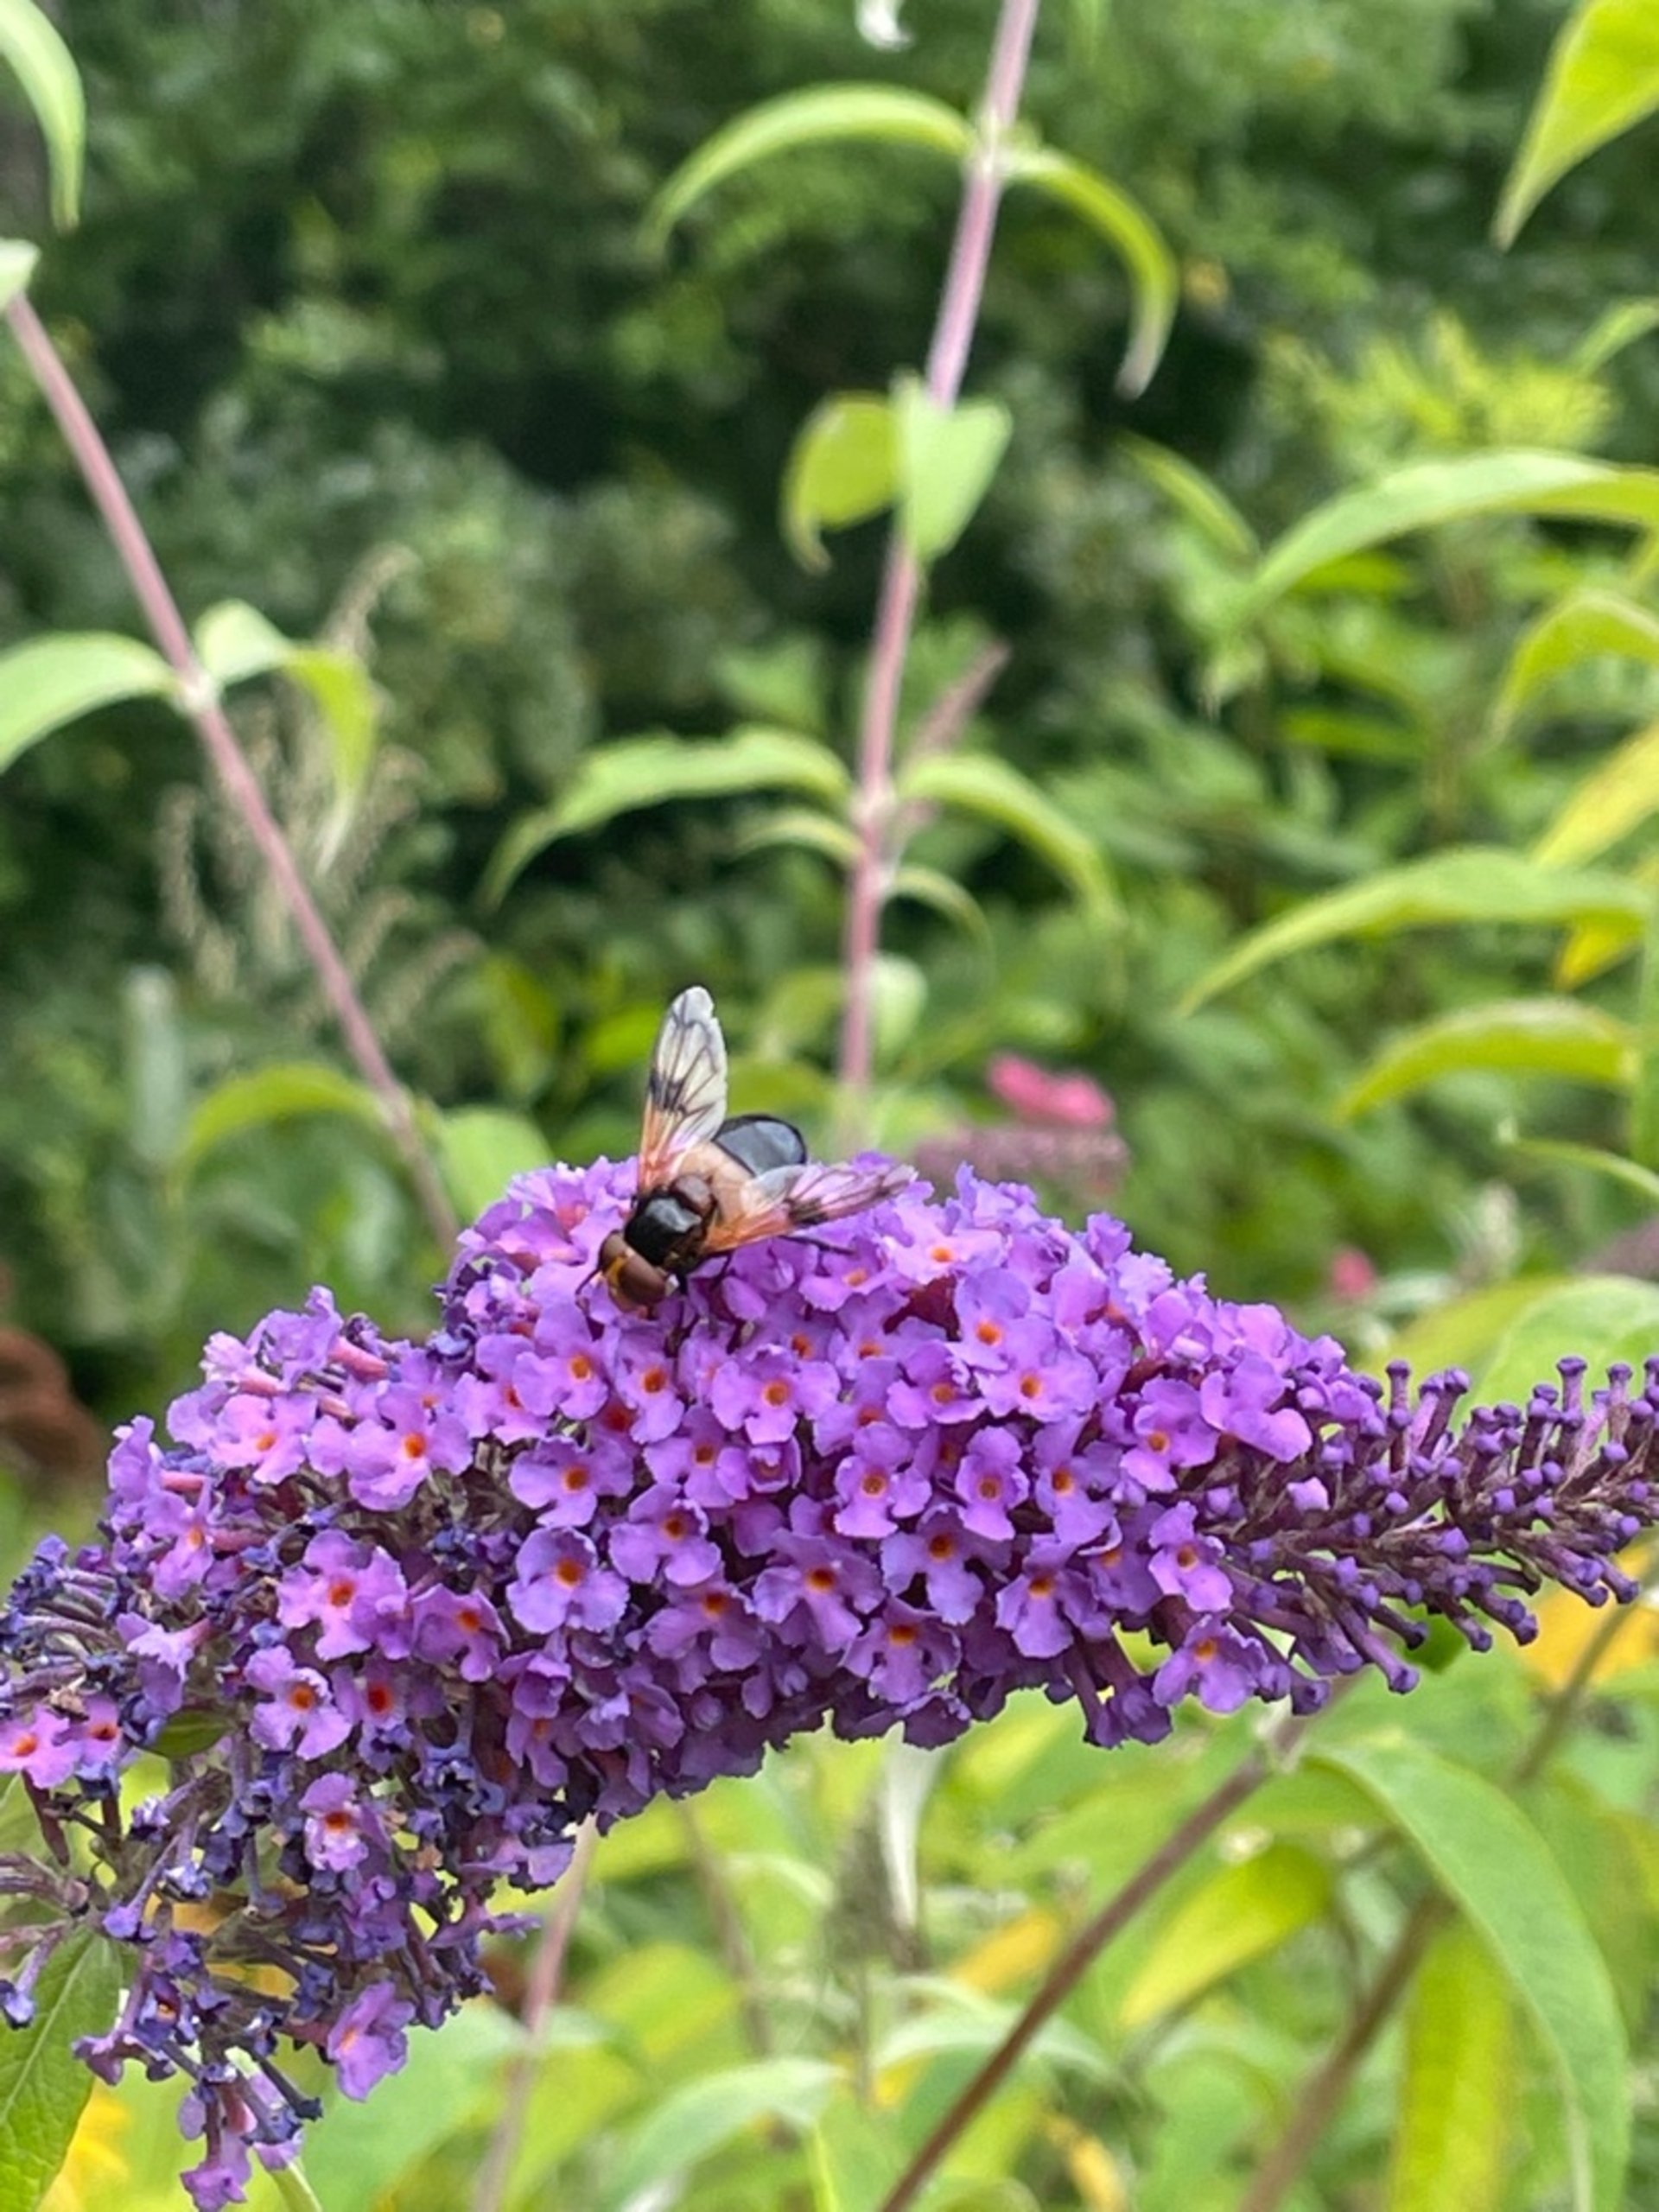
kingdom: Animalia
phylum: Arthropoda
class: Insecta
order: Diptera
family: Syrphidae
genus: Volucella
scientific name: Volucella pellucens
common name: Hvidbåndet humlesvirreflue
